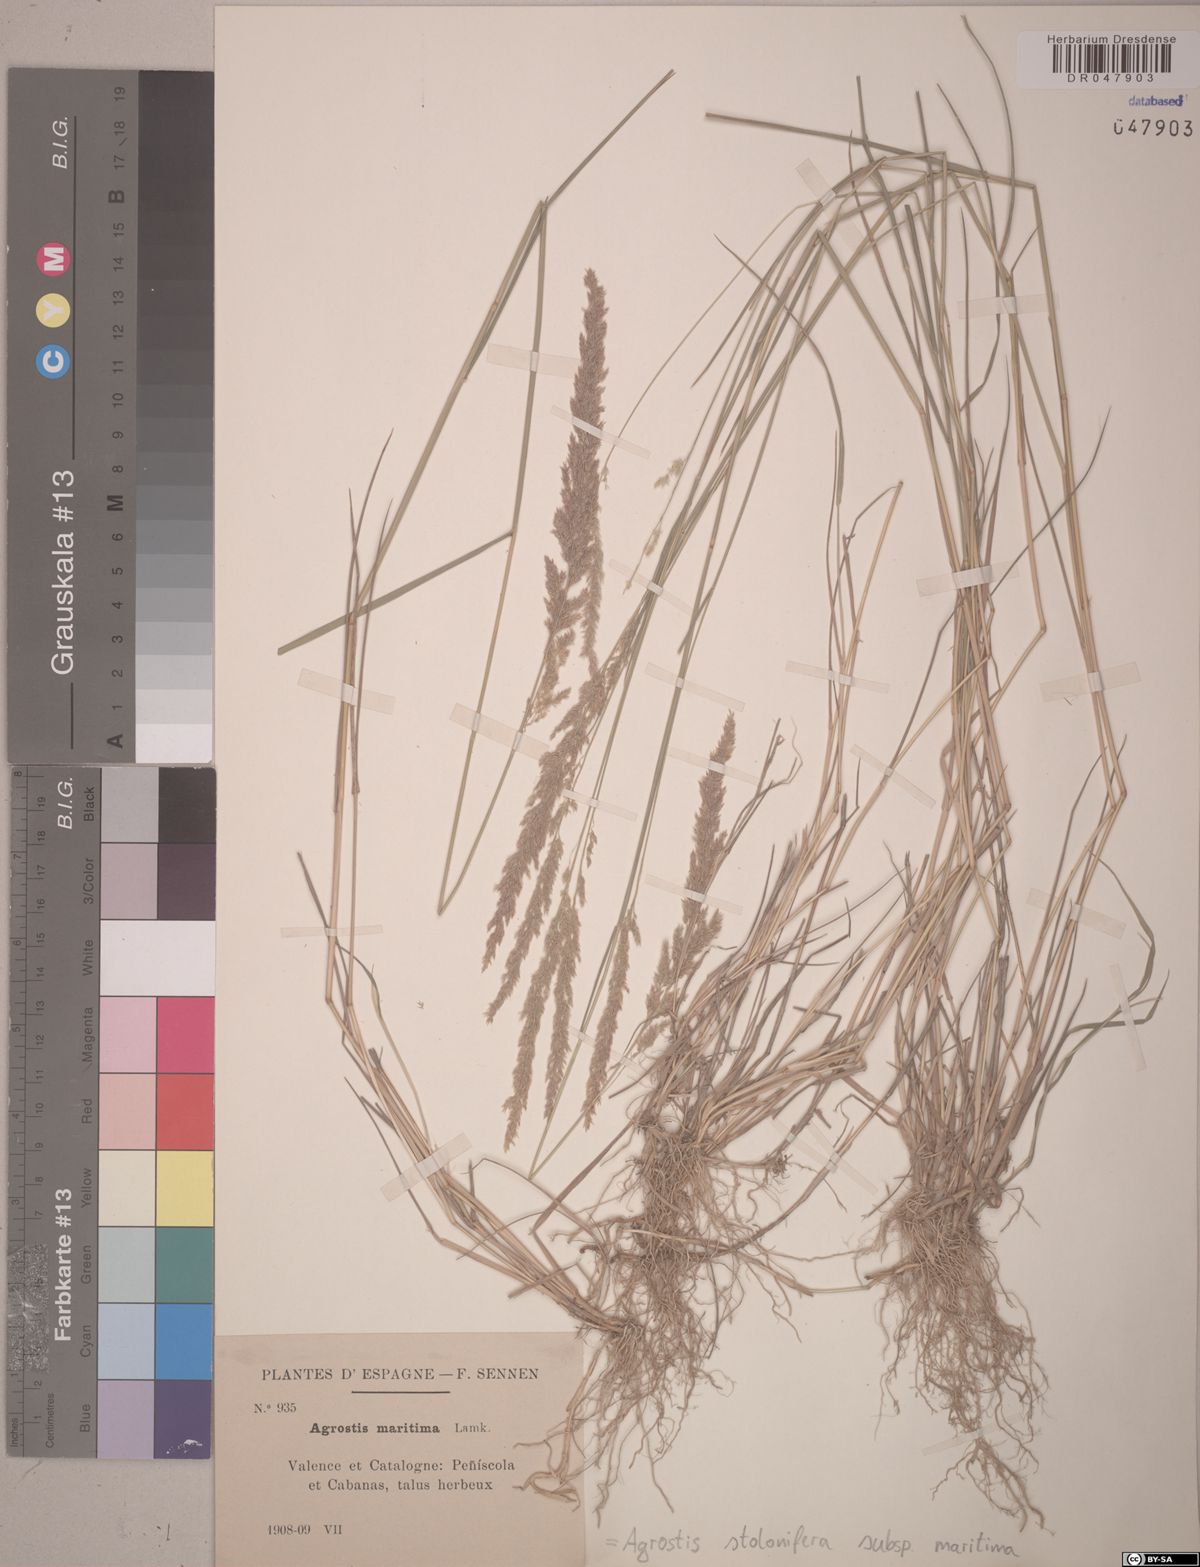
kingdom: Plantae
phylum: Tracheophyta
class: Liliopsida
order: Poales
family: Poaceae
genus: Agrostis
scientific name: Agrostis stolonifera
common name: Creeping bentgrass
